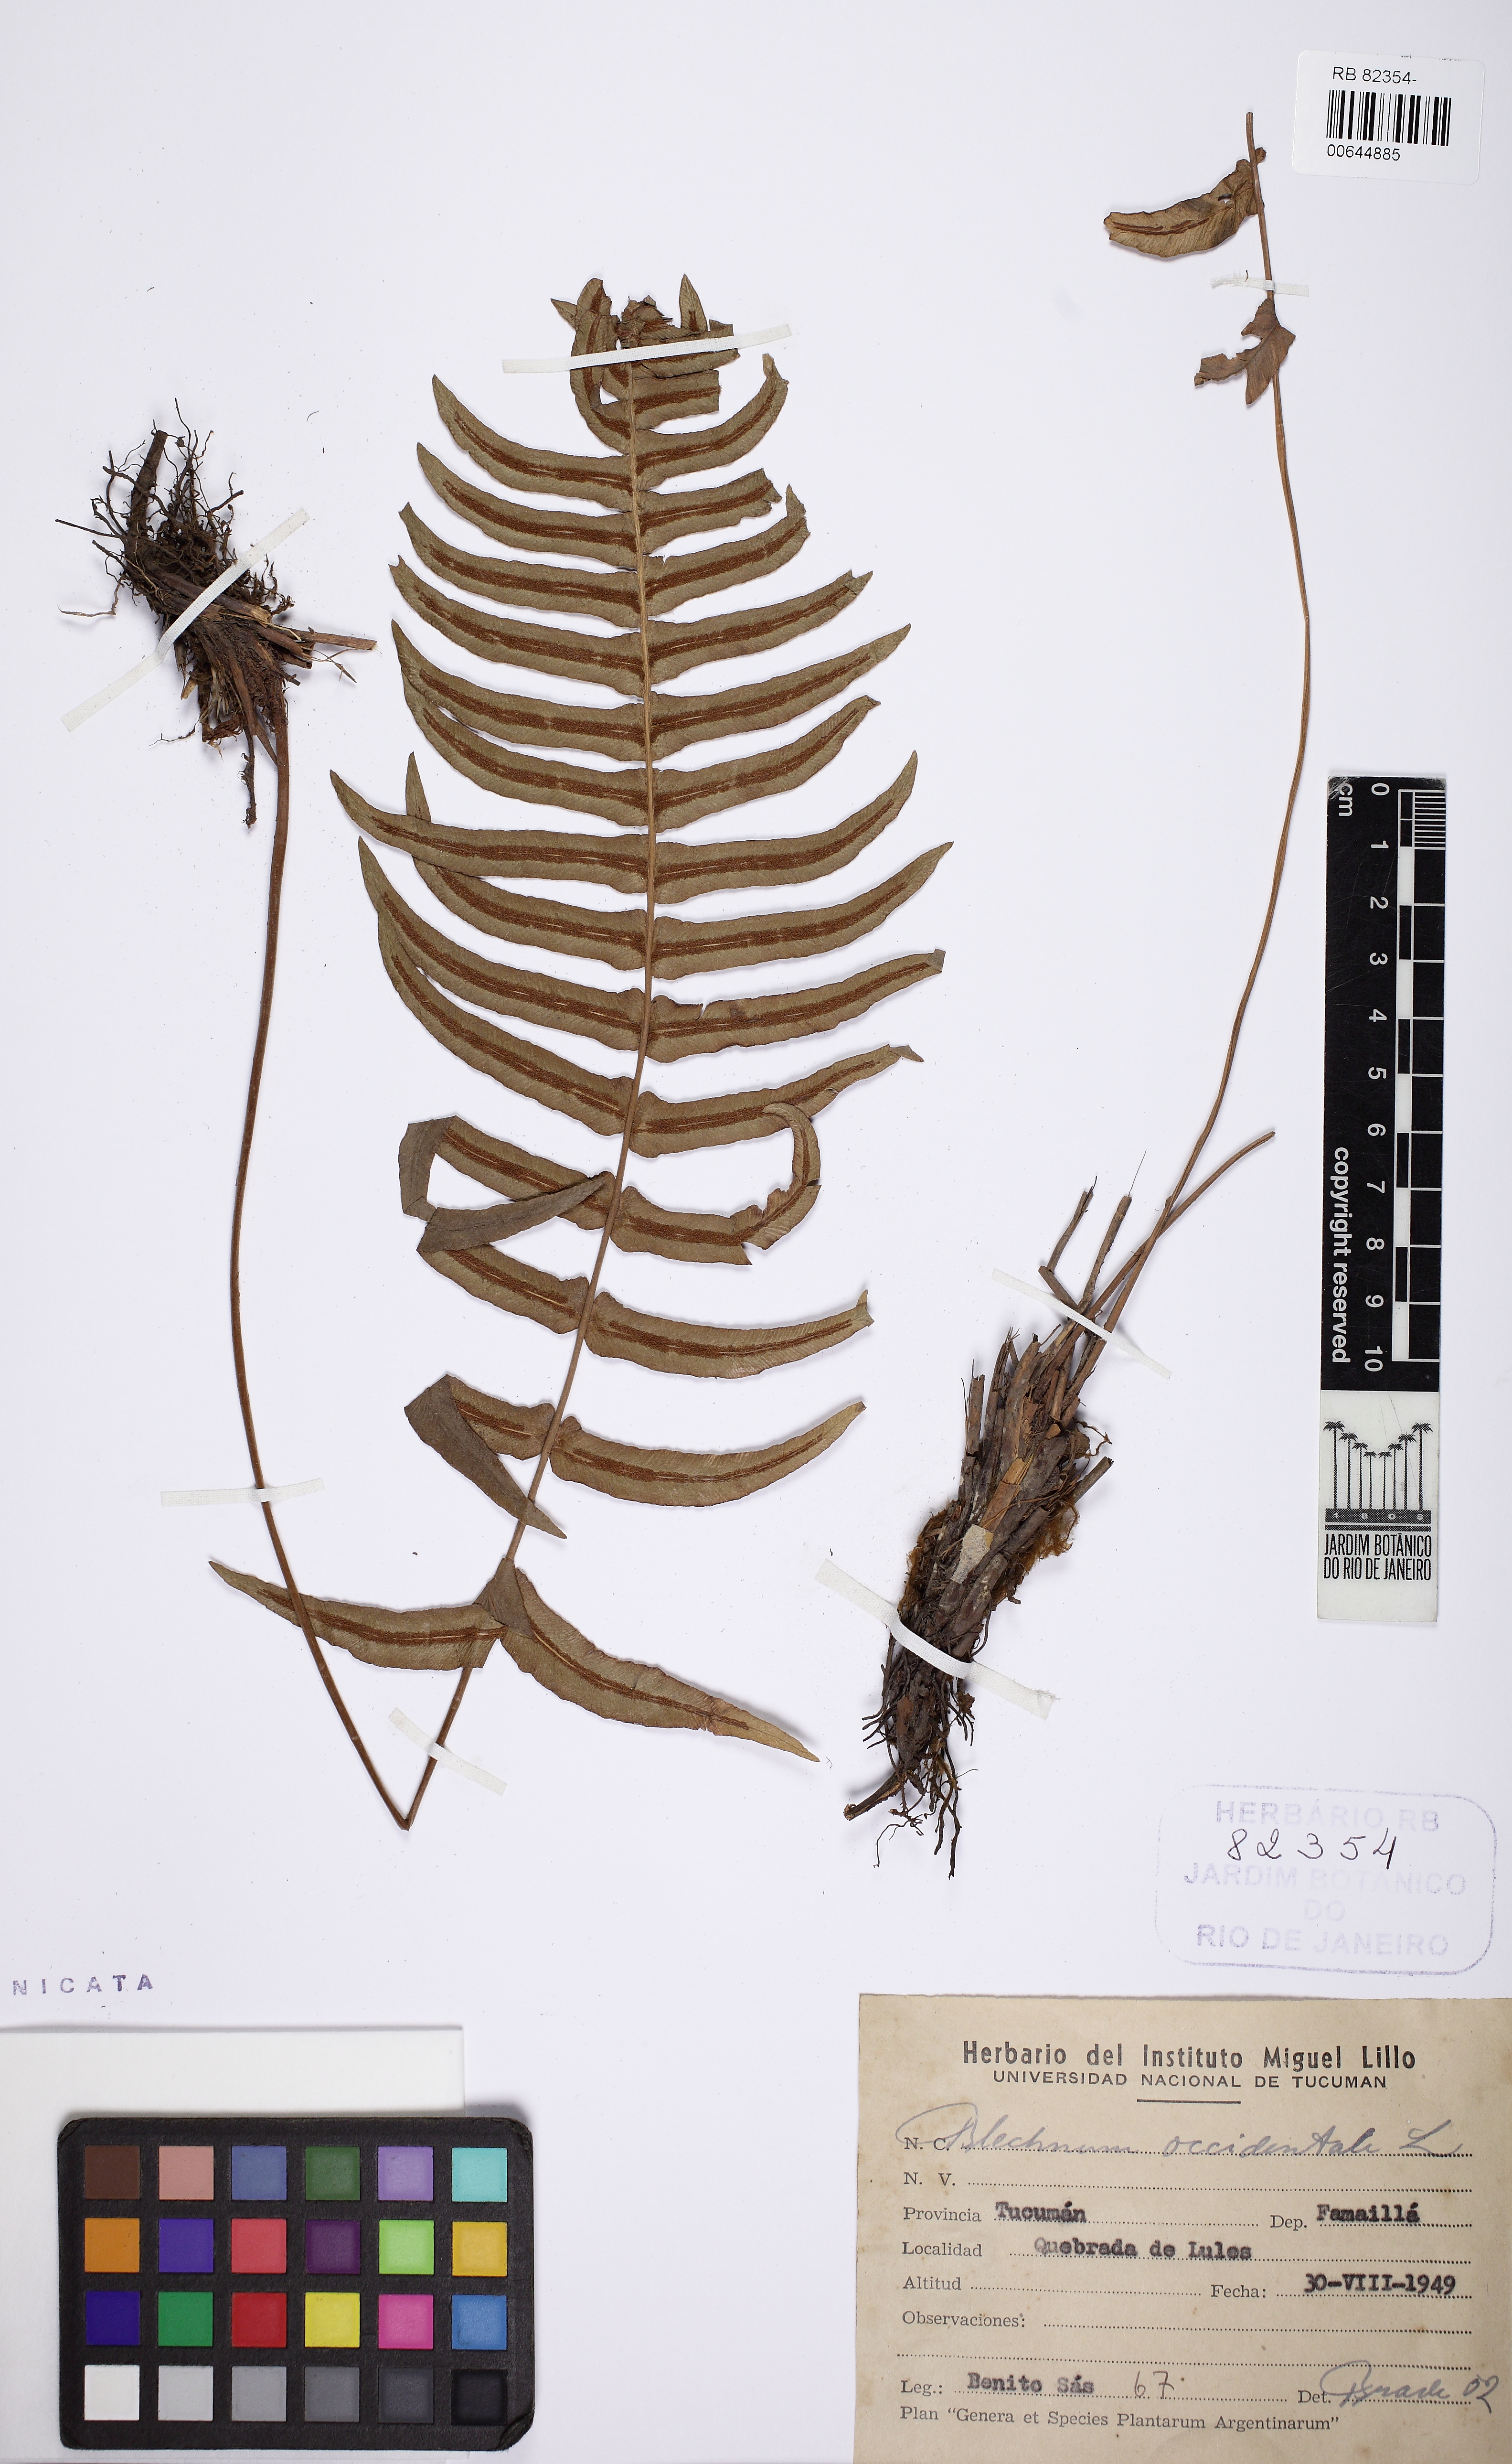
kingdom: Plantae
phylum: Tracheophyta
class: Polypodiopsida
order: Polypodiales
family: Blechnaceae
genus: Blechnum
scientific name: Blechnum occidentale
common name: Hammock fern
